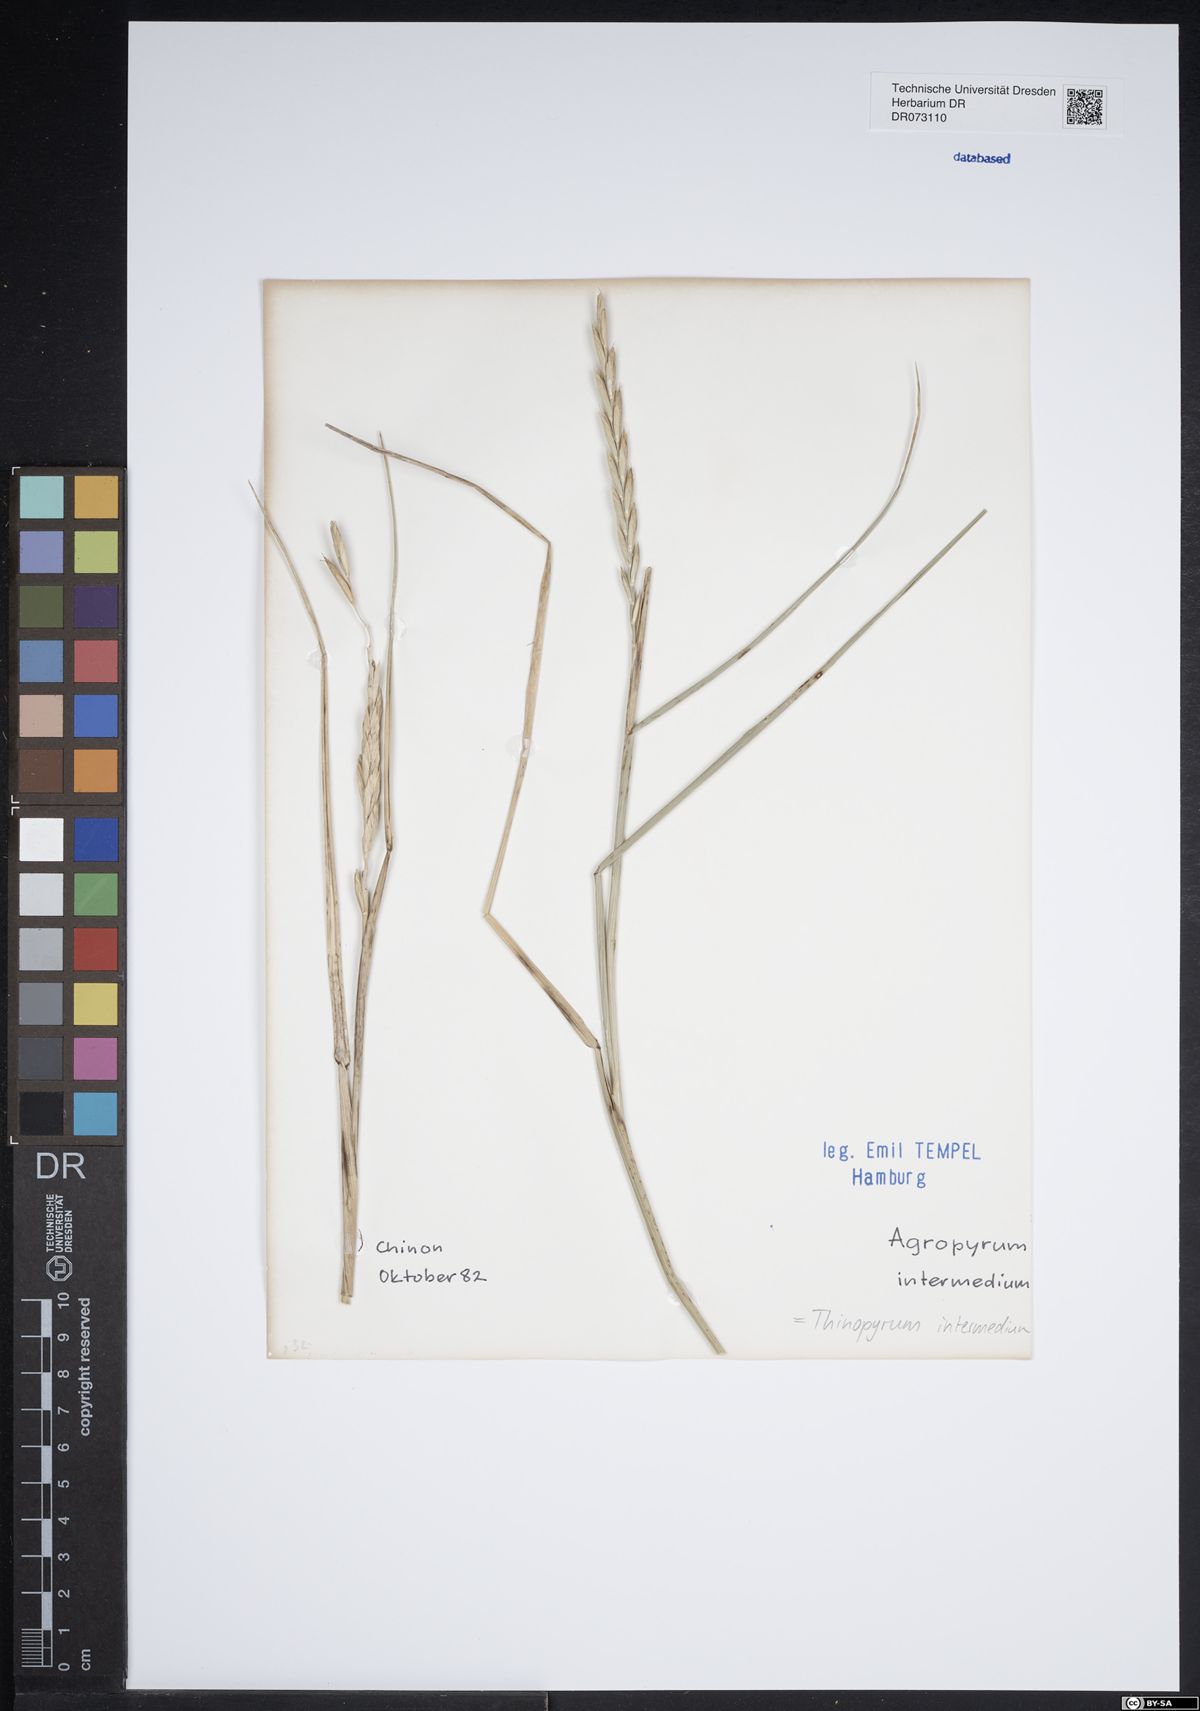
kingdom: Plantae
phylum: Tracheophyta
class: Liliopsida
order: Poales
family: Poaceae
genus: Thinopyrum
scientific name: Thinopyrum intermedium
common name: Intermediate wheatgrass
